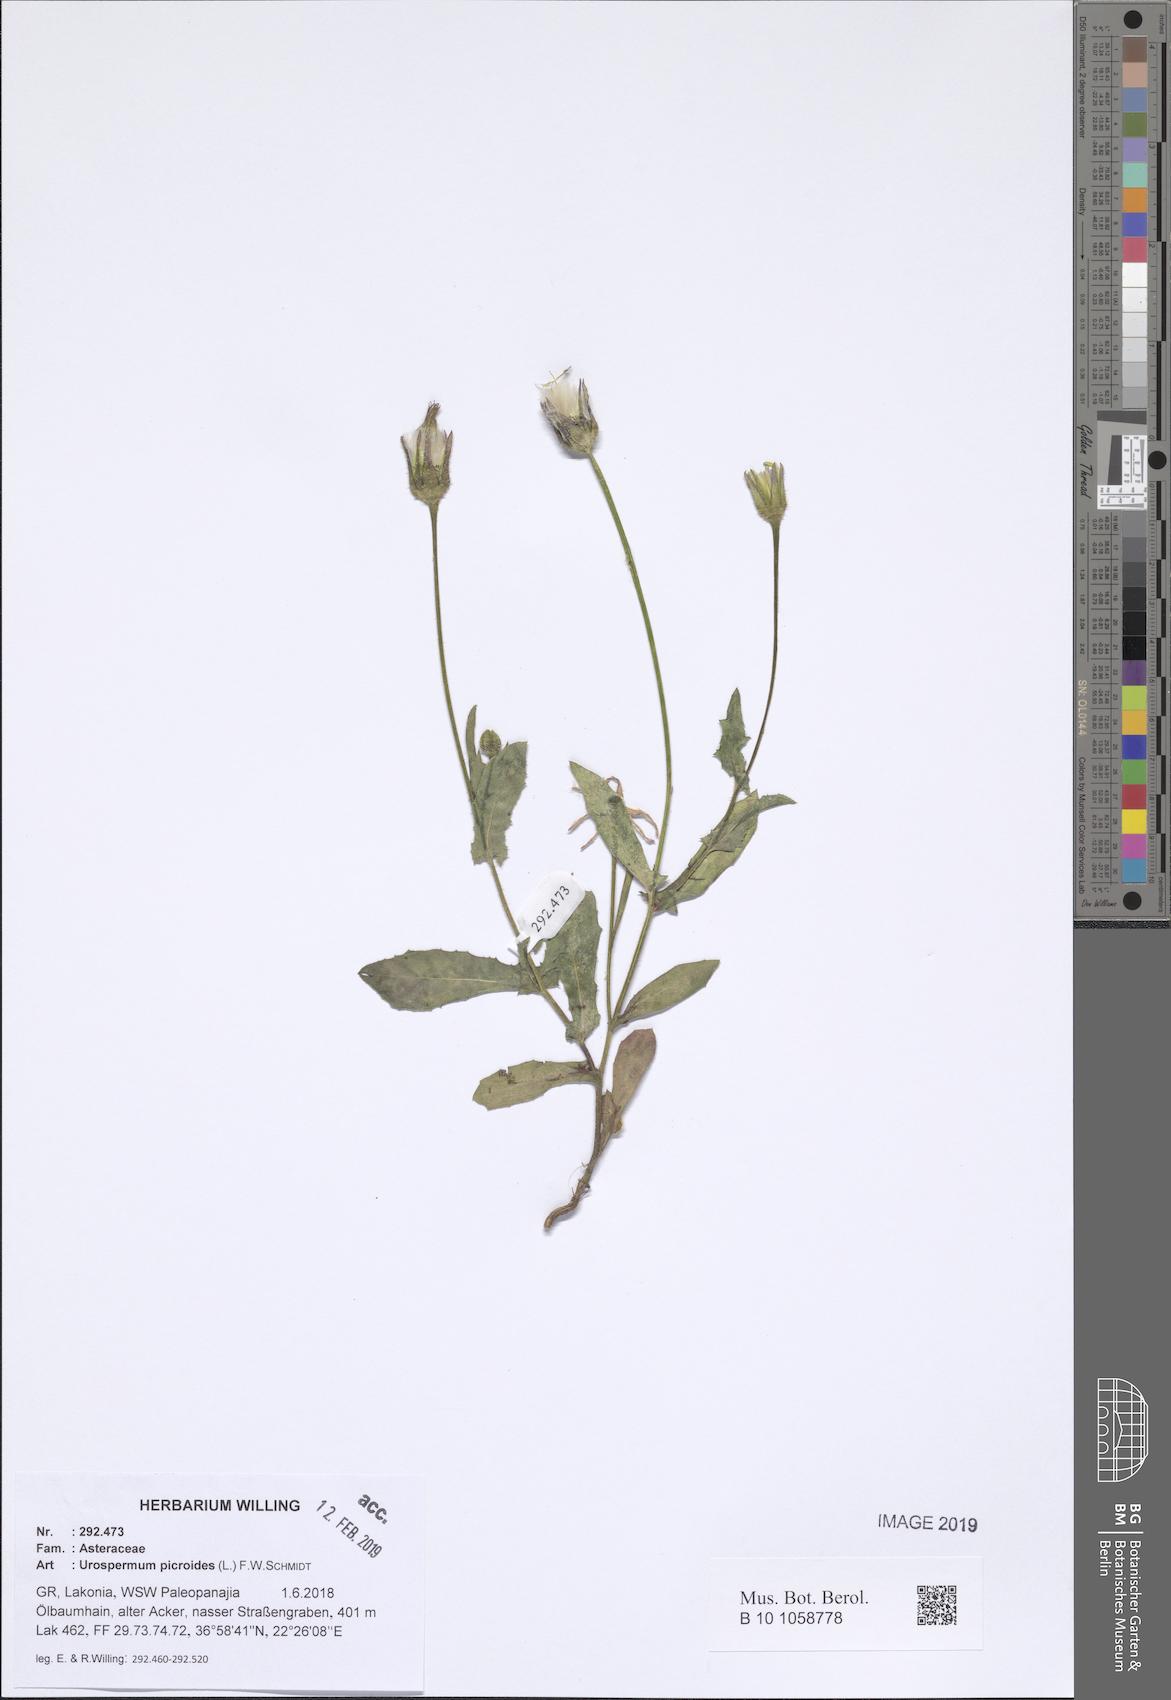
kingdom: Plantae
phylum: Tracheophyta
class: Magnoliopsida
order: Asterales
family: Asteraceae
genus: Urospermum
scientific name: Urospermum picroides
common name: False hawkbit
